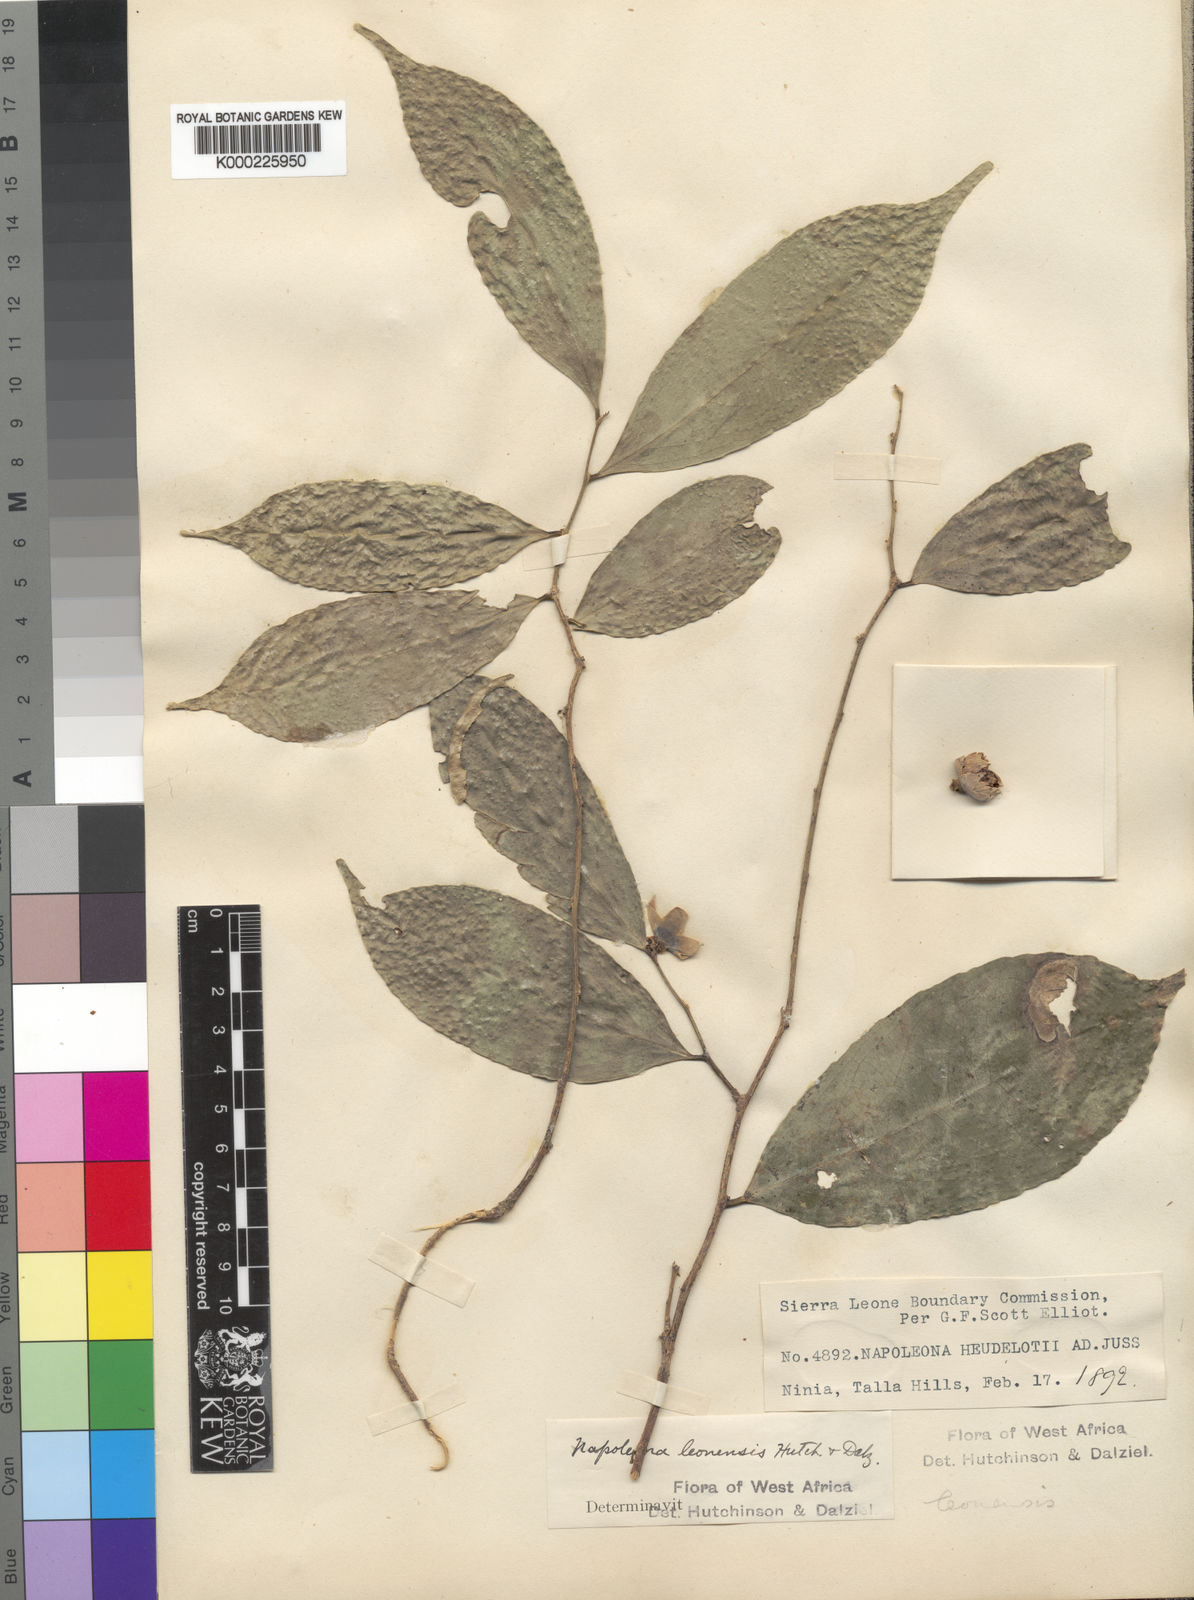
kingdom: Plantae
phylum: Tracheophyta
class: Magnoliopsida
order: Ericales
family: Lecythidaceae
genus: Napoleonaea
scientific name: Napoleonaea leonensis
